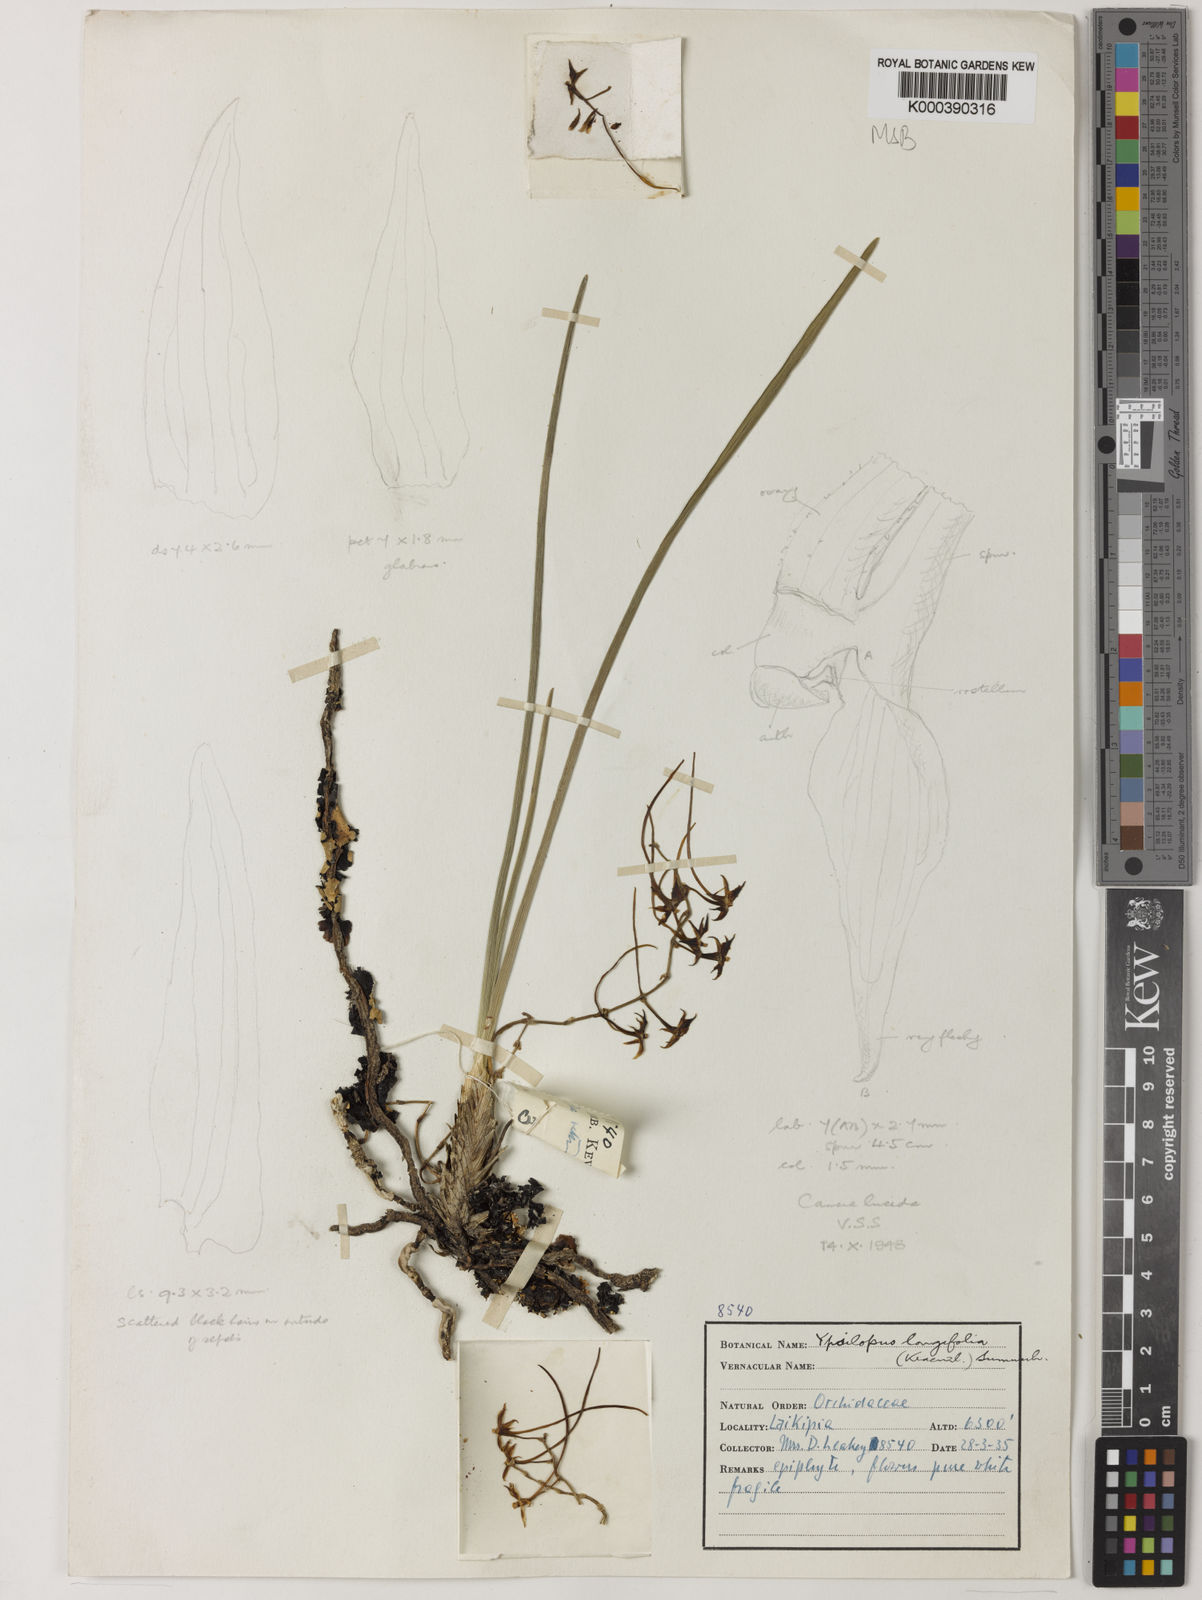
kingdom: Plantae
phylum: Tracheophyta
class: Liliopsida
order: Asparagales
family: Orchidaceae
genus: Ypsilopus
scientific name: Ypsilopus longifolius
